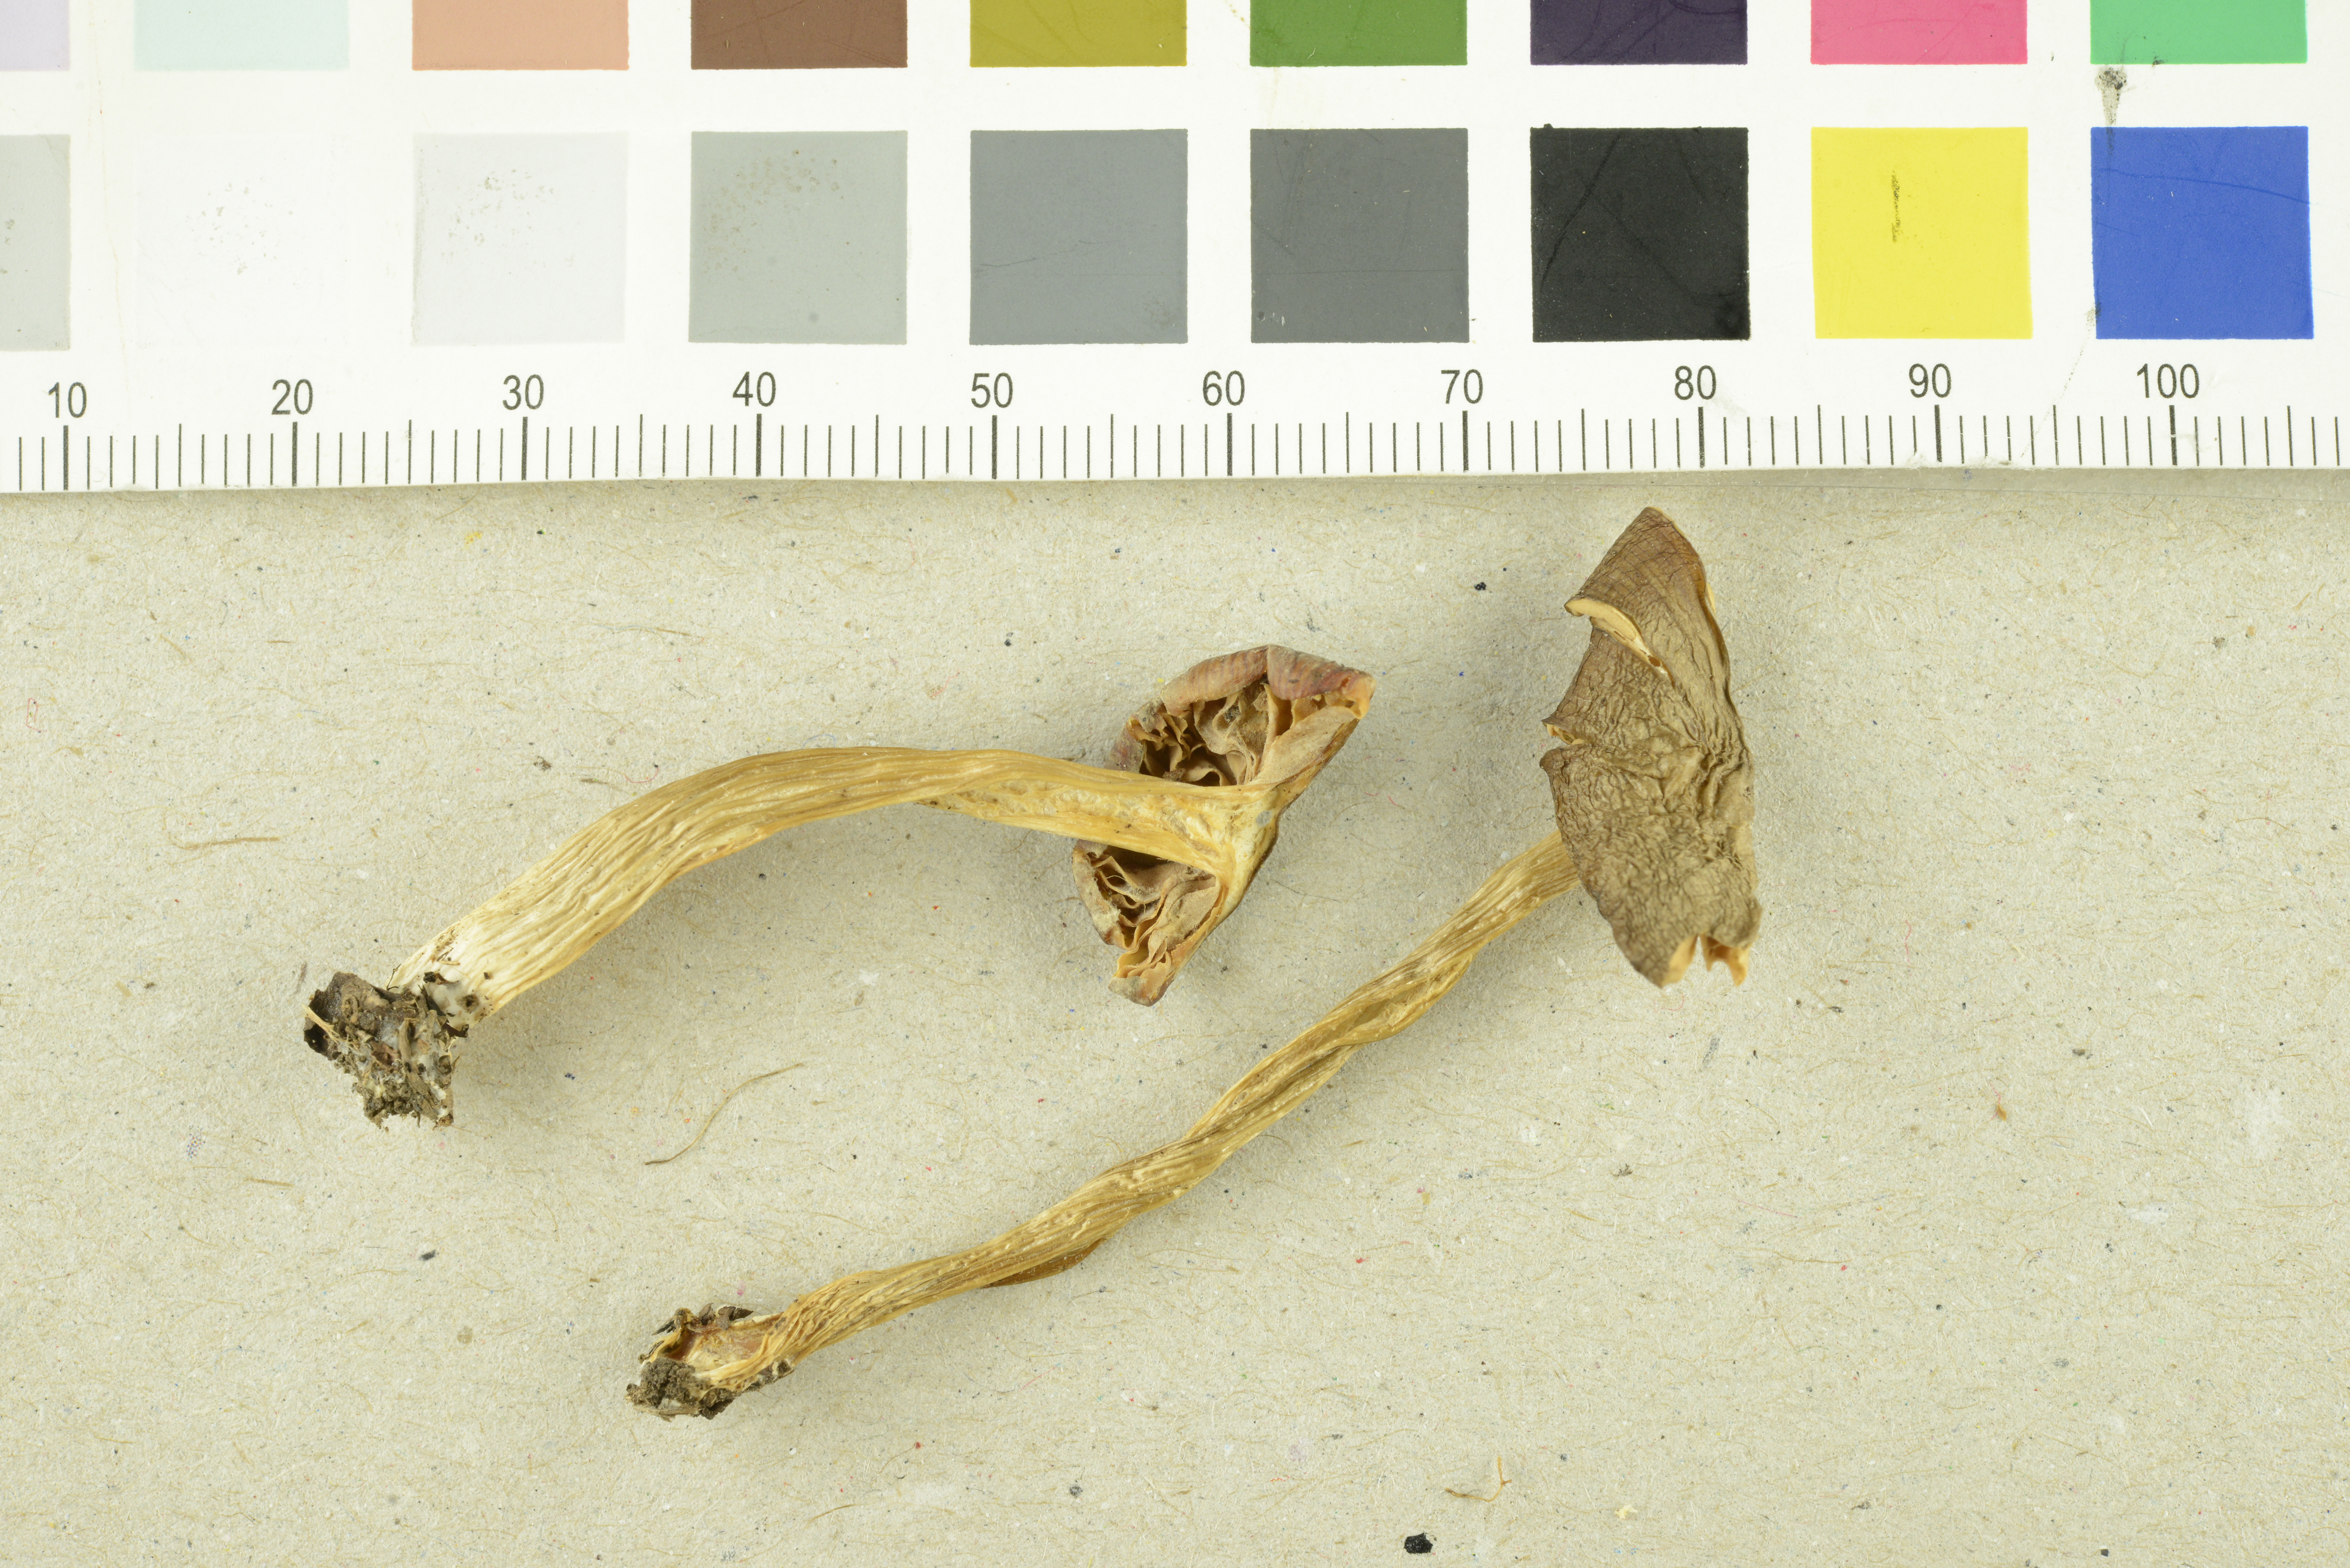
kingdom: Fungi
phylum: Basidiomycota
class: Agaricomycetes
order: Agaricales
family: Entolomataceae
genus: Entoloma
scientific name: Entoloma aprile
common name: Aprilrødspore
